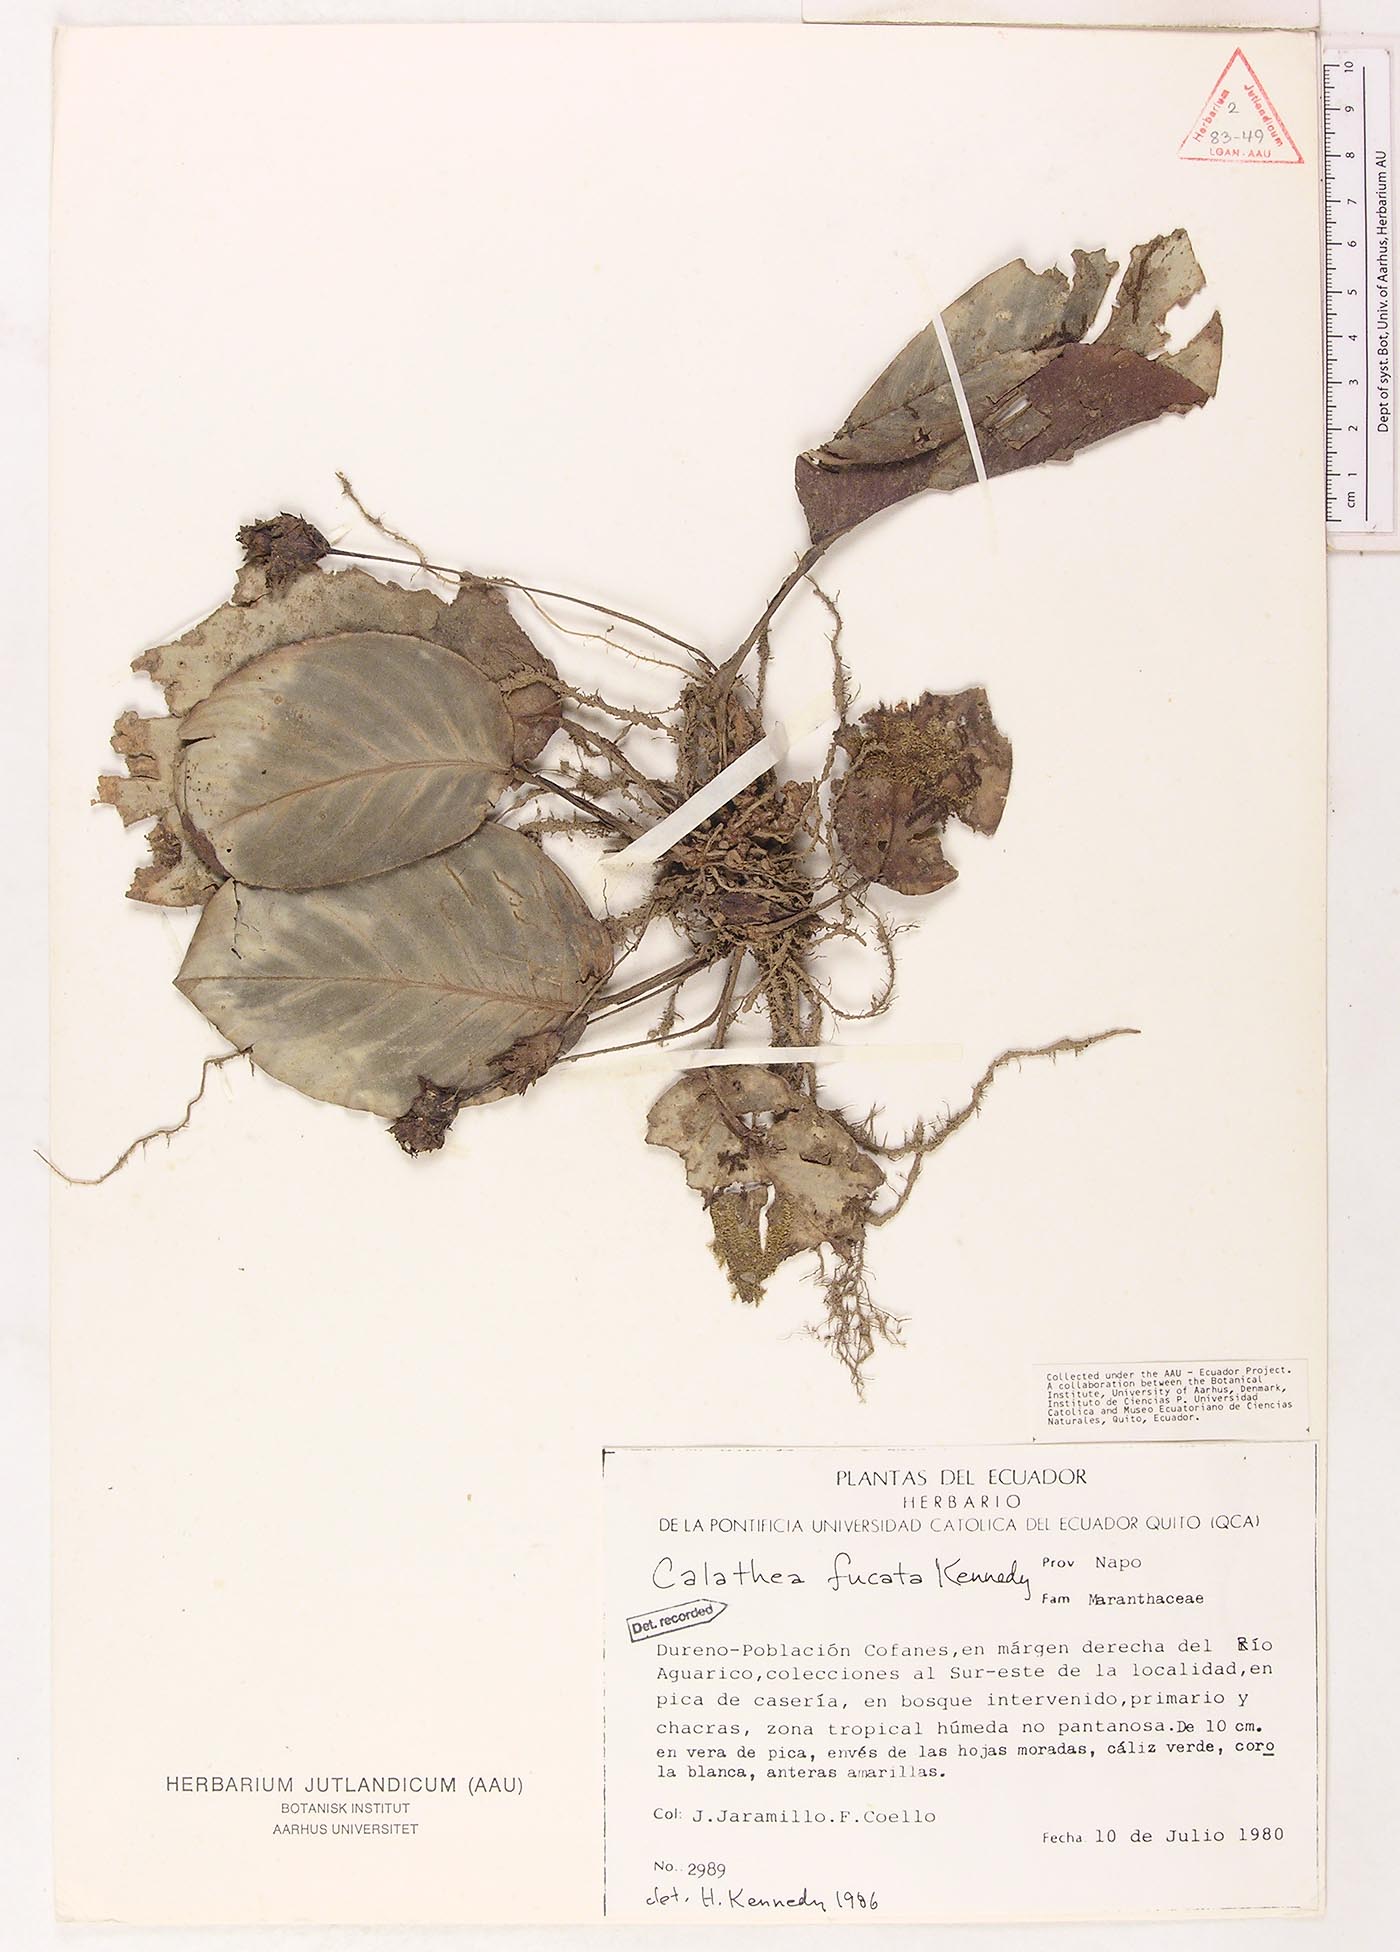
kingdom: Plantae
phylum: Tracheophyta
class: Liliopsida
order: Zingiberales
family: Marantaceae
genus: Goeppertia
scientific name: Goeppertia fucata
